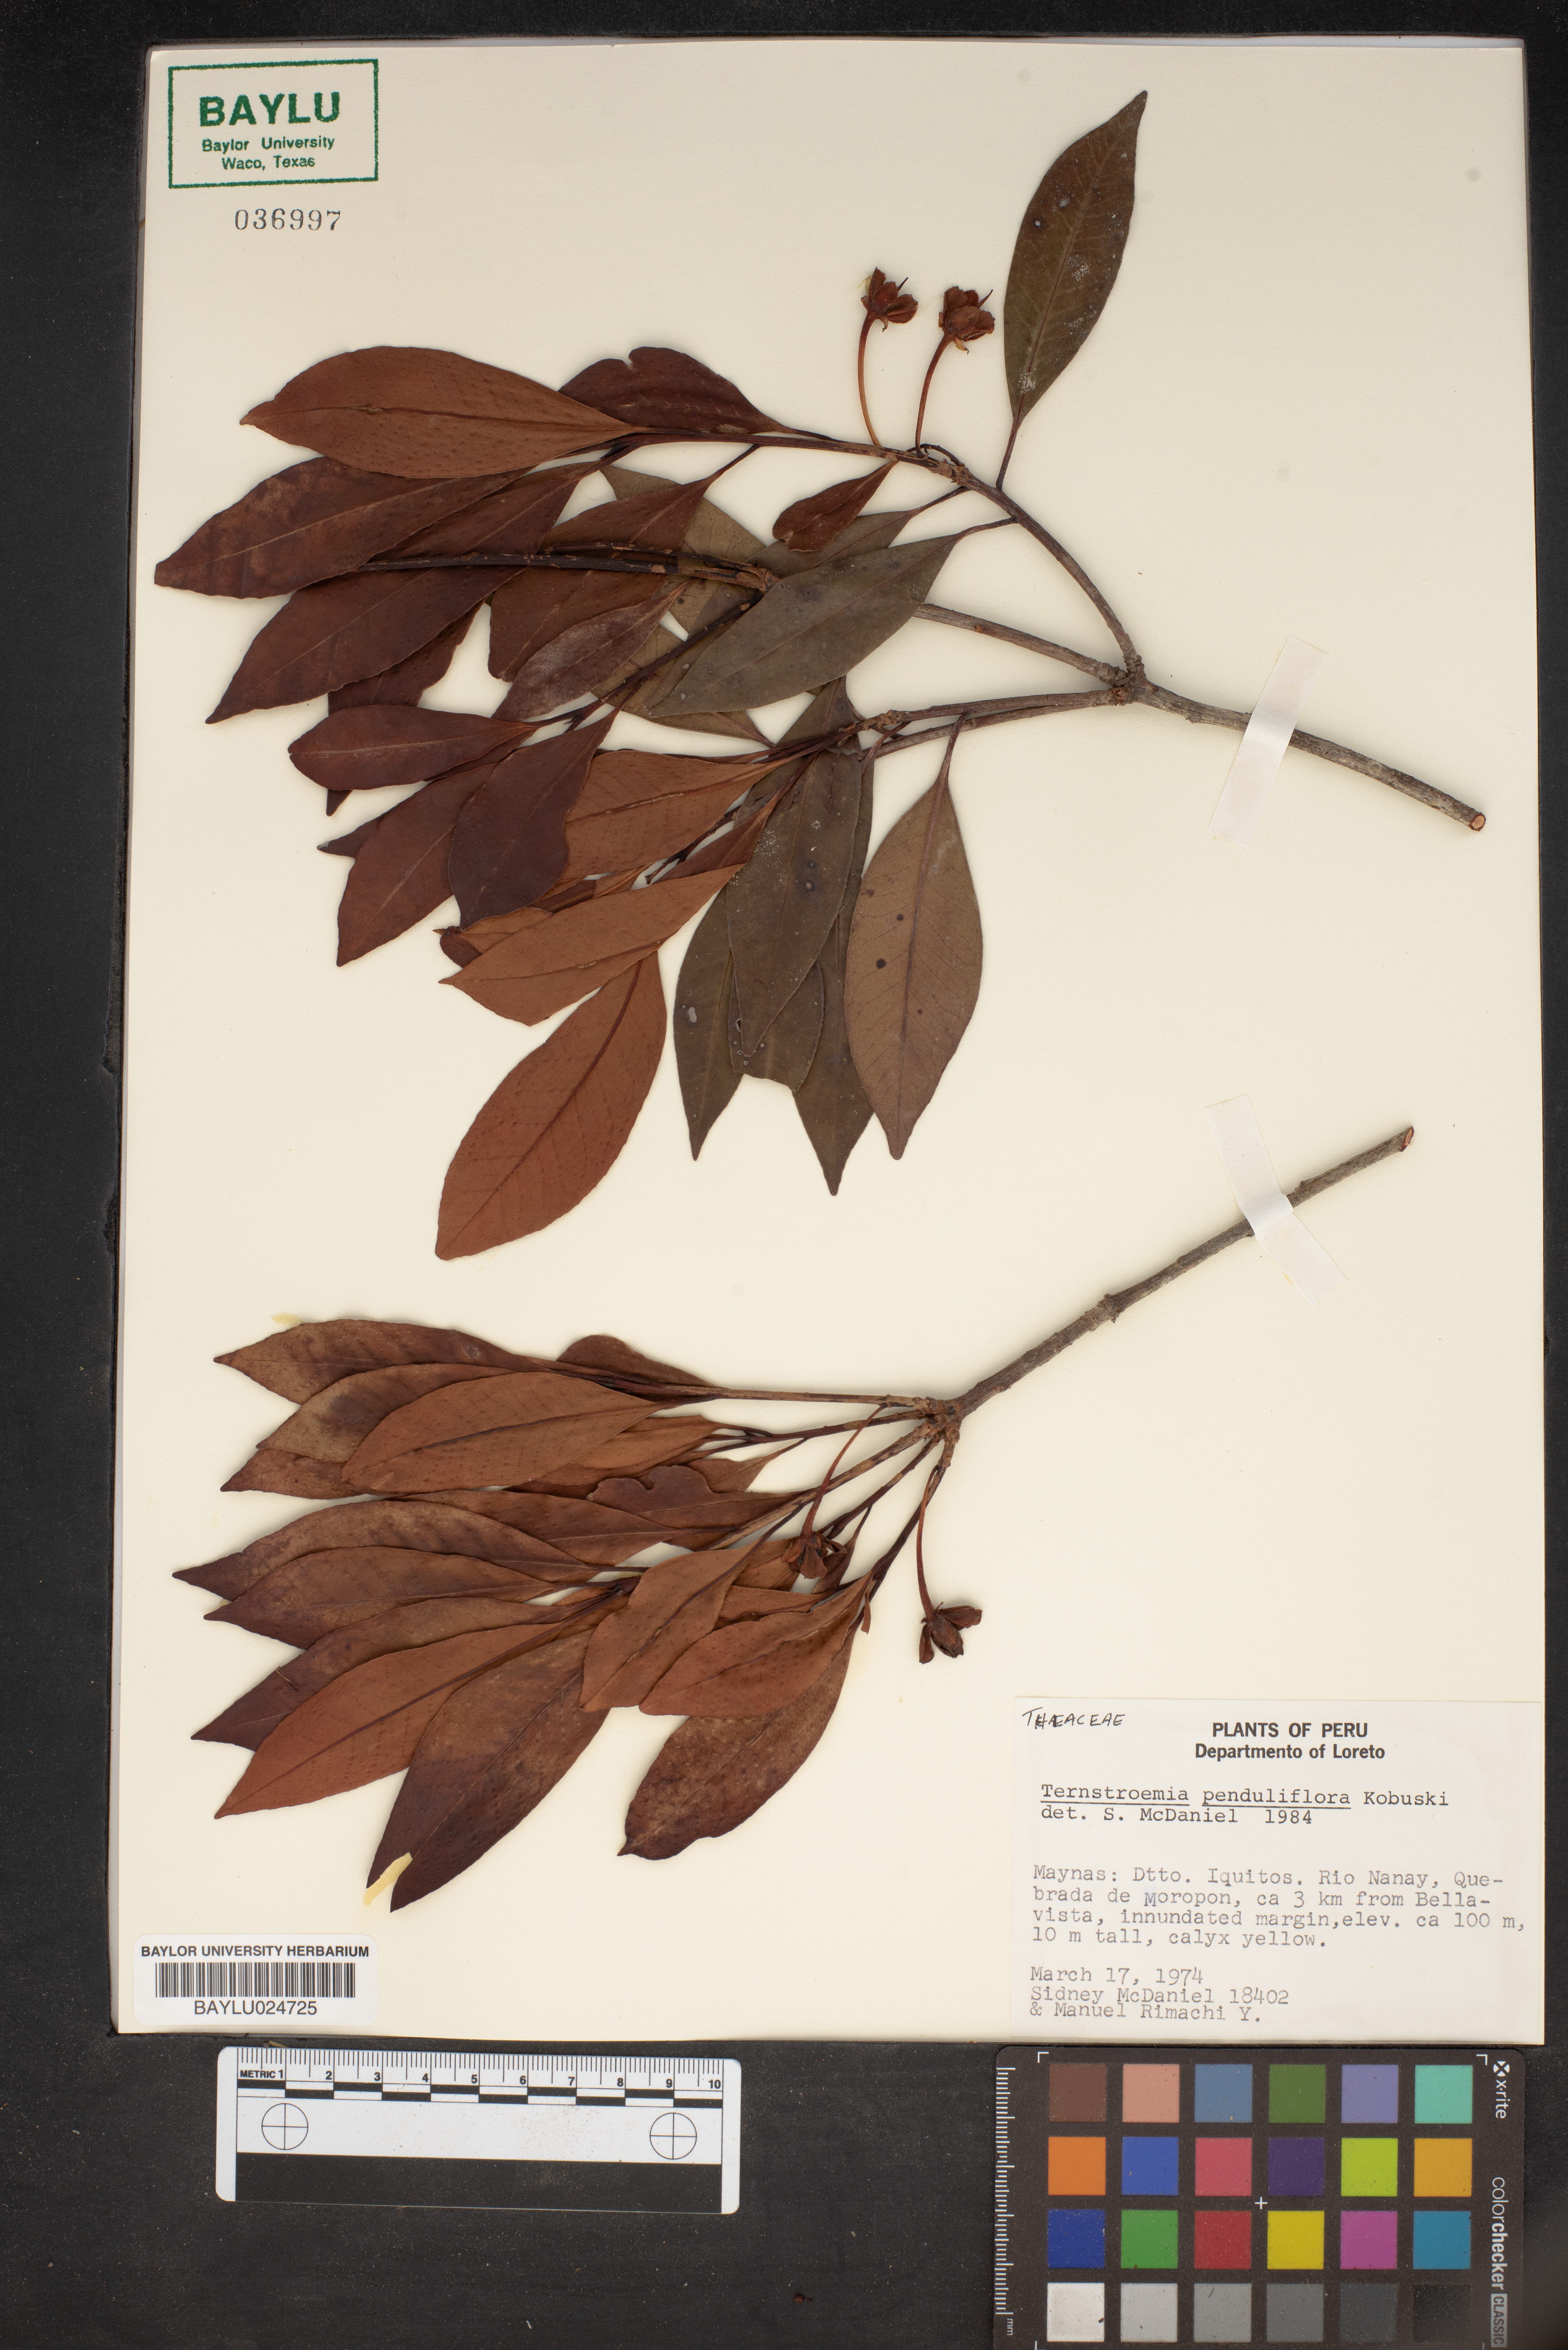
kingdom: Plantae
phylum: Tracheophyta
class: Magnoliopsida
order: Ericales
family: Pentaphylacaceae
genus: Ternstroemia
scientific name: Ternstroemia penduliflora
